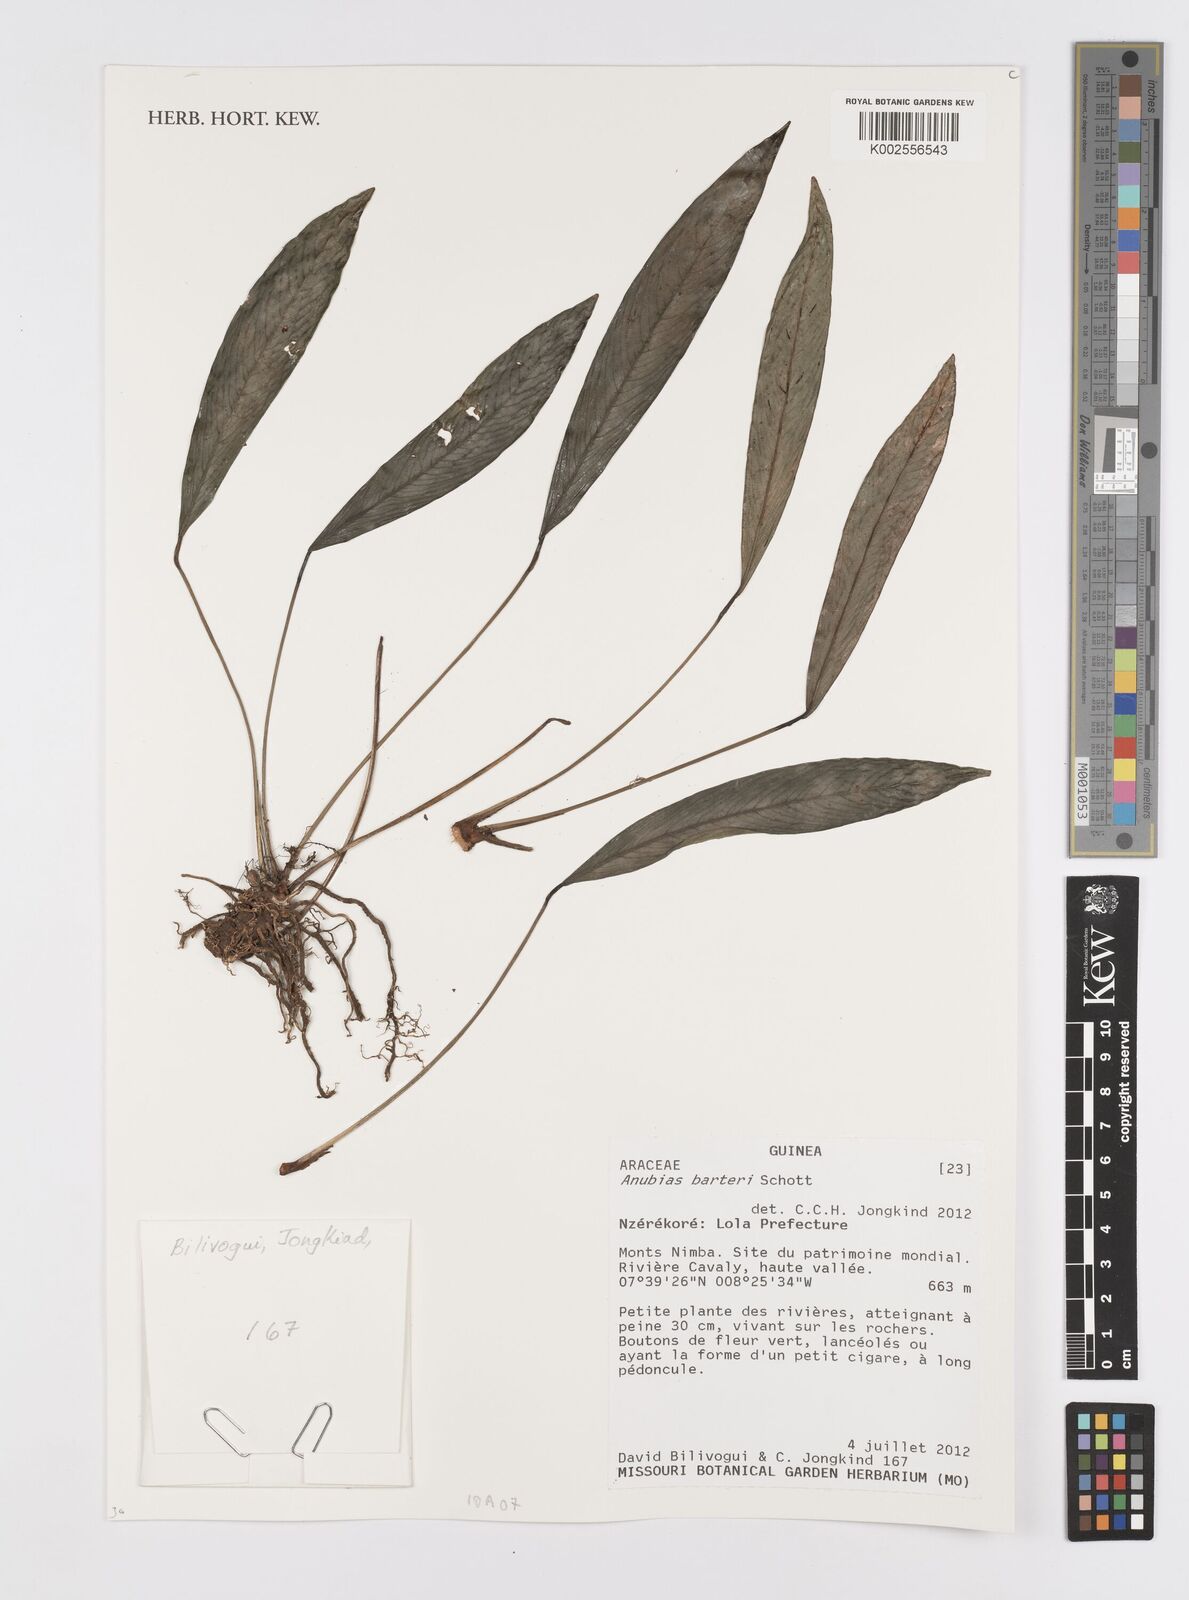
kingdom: Plantae
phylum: Tracheophyta
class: Liliopsida
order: Alismatales
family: Araceae
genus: Anubias
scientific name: Anubias barteri
